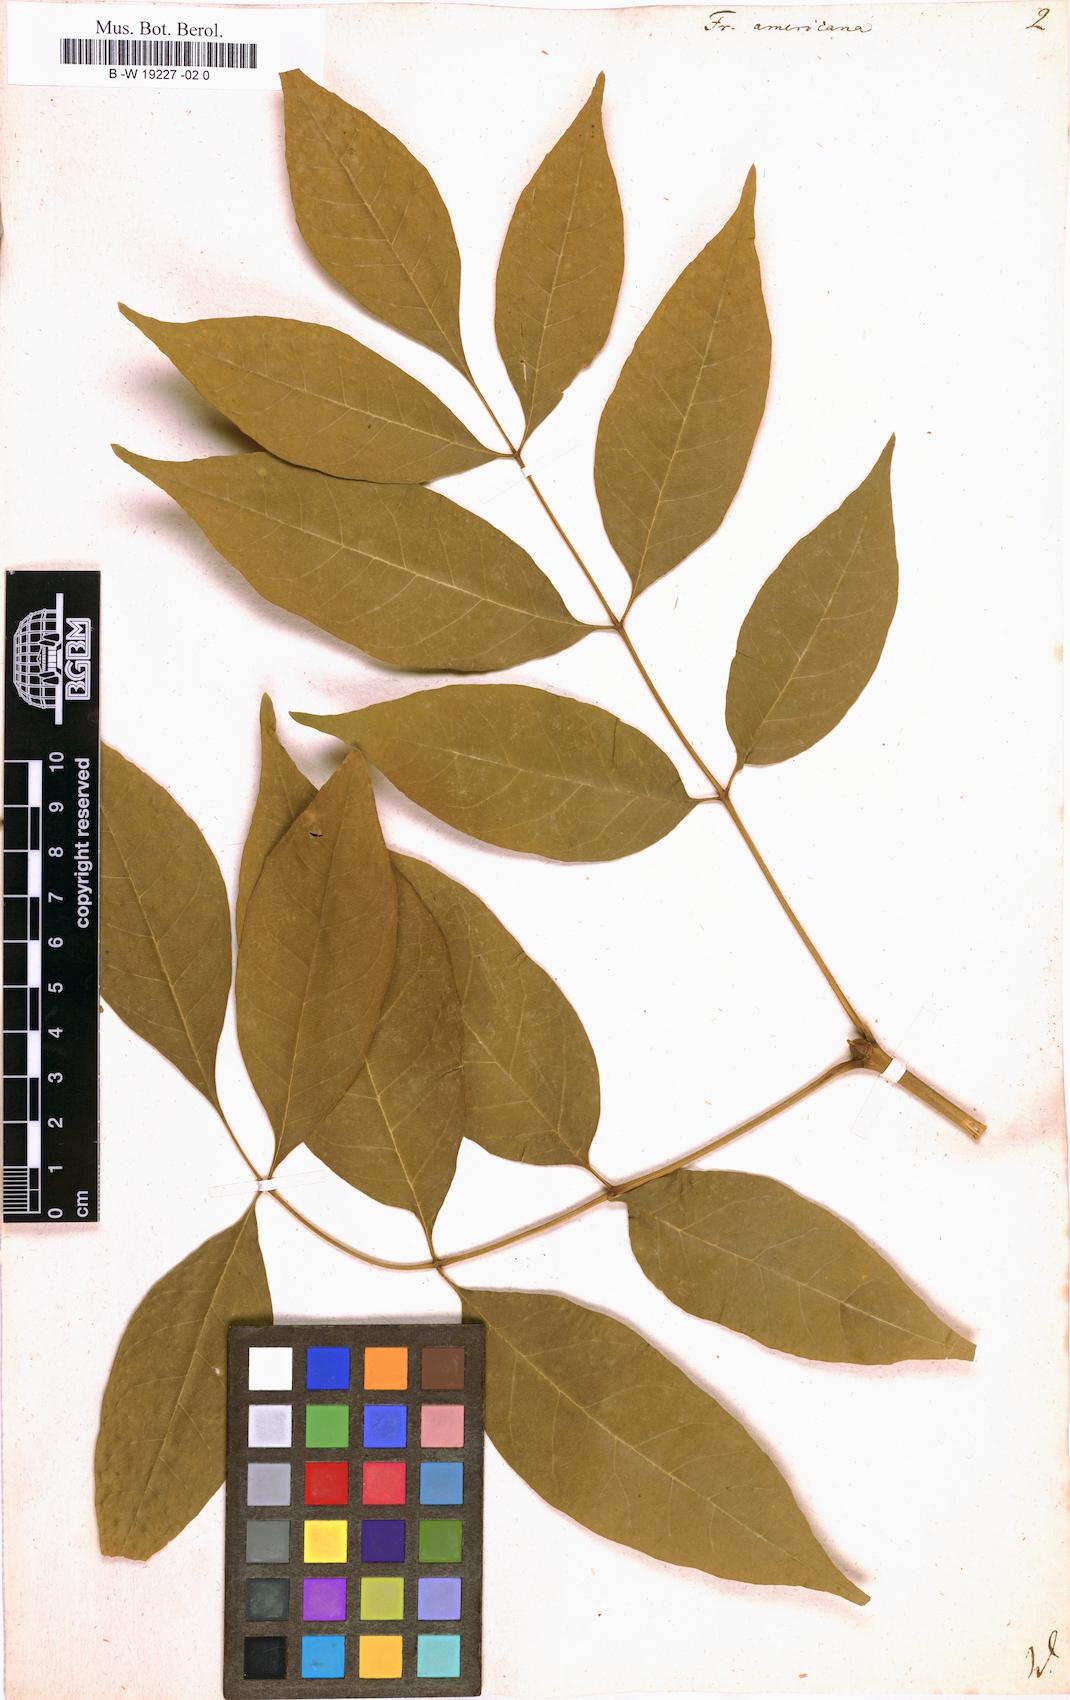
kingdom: Plantae
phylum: Tracheophyta
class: Magnoliopsida
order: Lamiales
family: Oleaceae
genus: Fraxinus
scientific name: Fraxinus americana
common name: White ash
